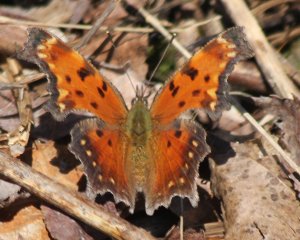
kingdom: Animalia
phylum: Arthropoda
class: Insecta
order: Lepidoptera
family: Nymphalidae
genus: Polygonia
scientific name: Polygonia progne
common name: Gray Comma
